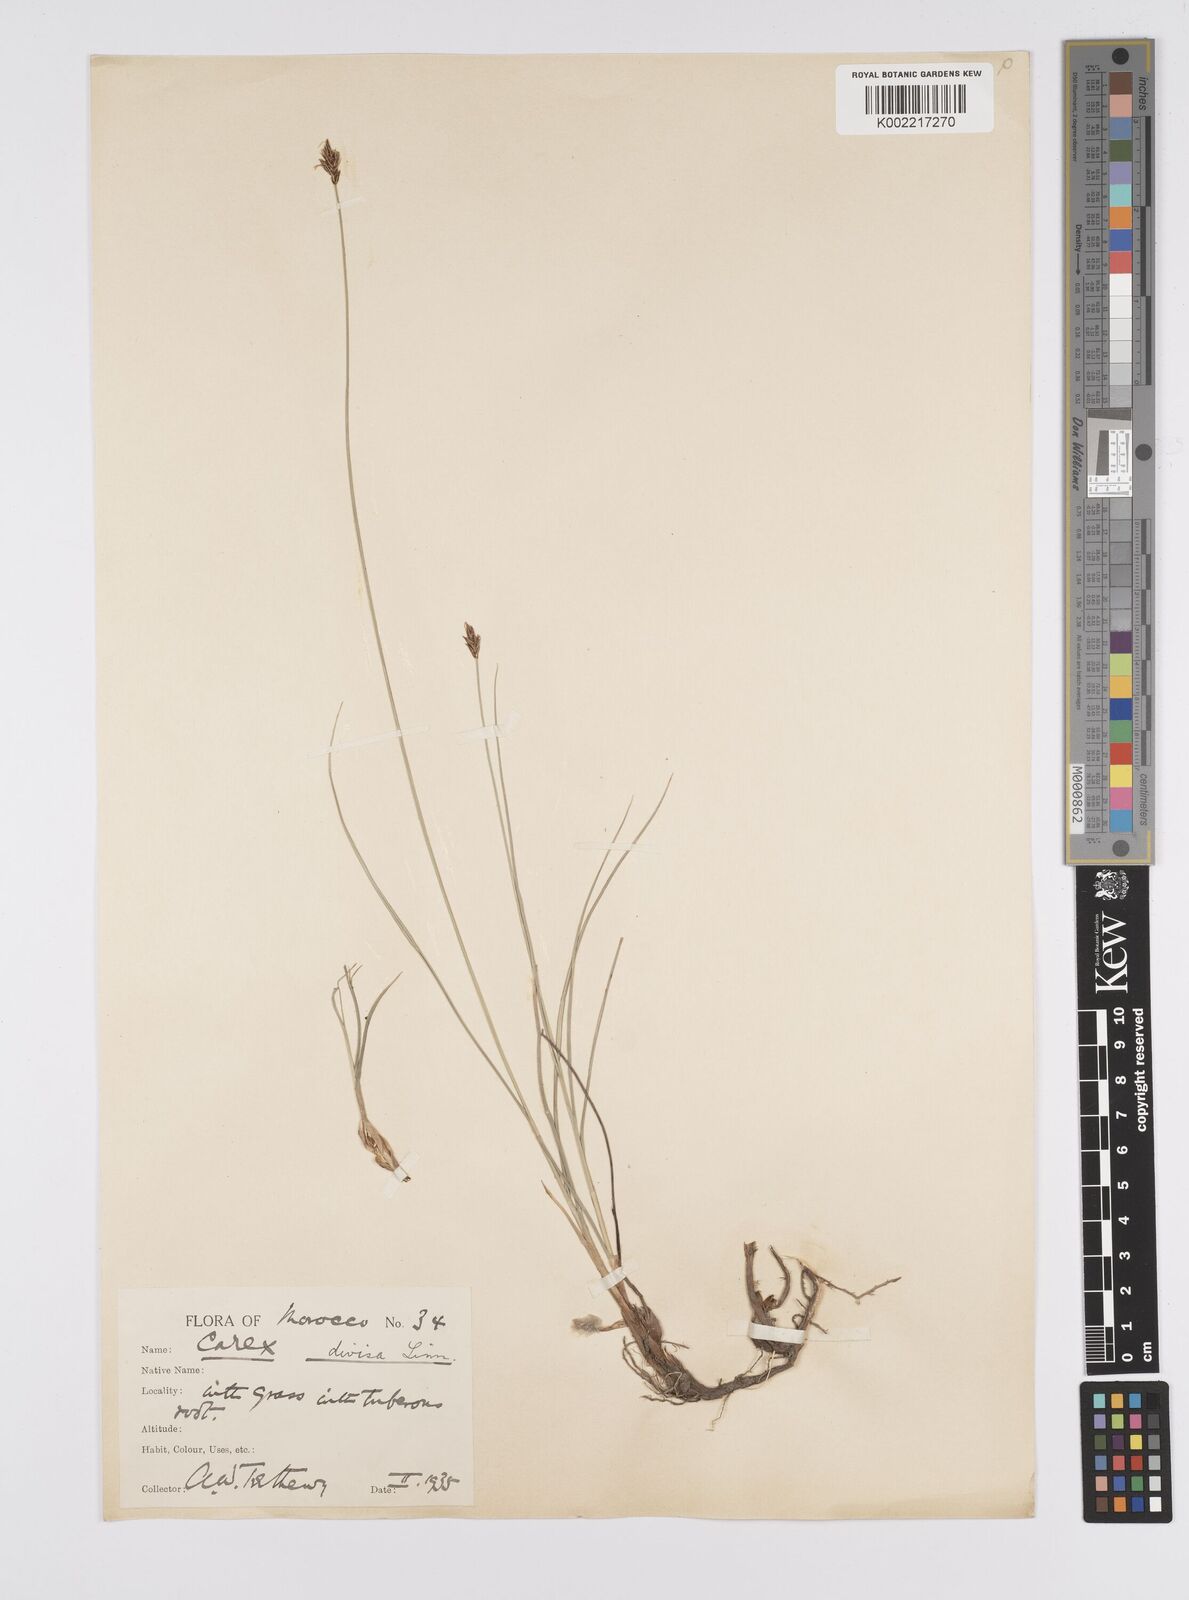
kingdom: Plantae
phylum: Tracheophyta
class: Liliopsida
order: Poales
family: Cyperaceae
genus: Carex
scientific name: Carex divisa
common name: Divided sedge
